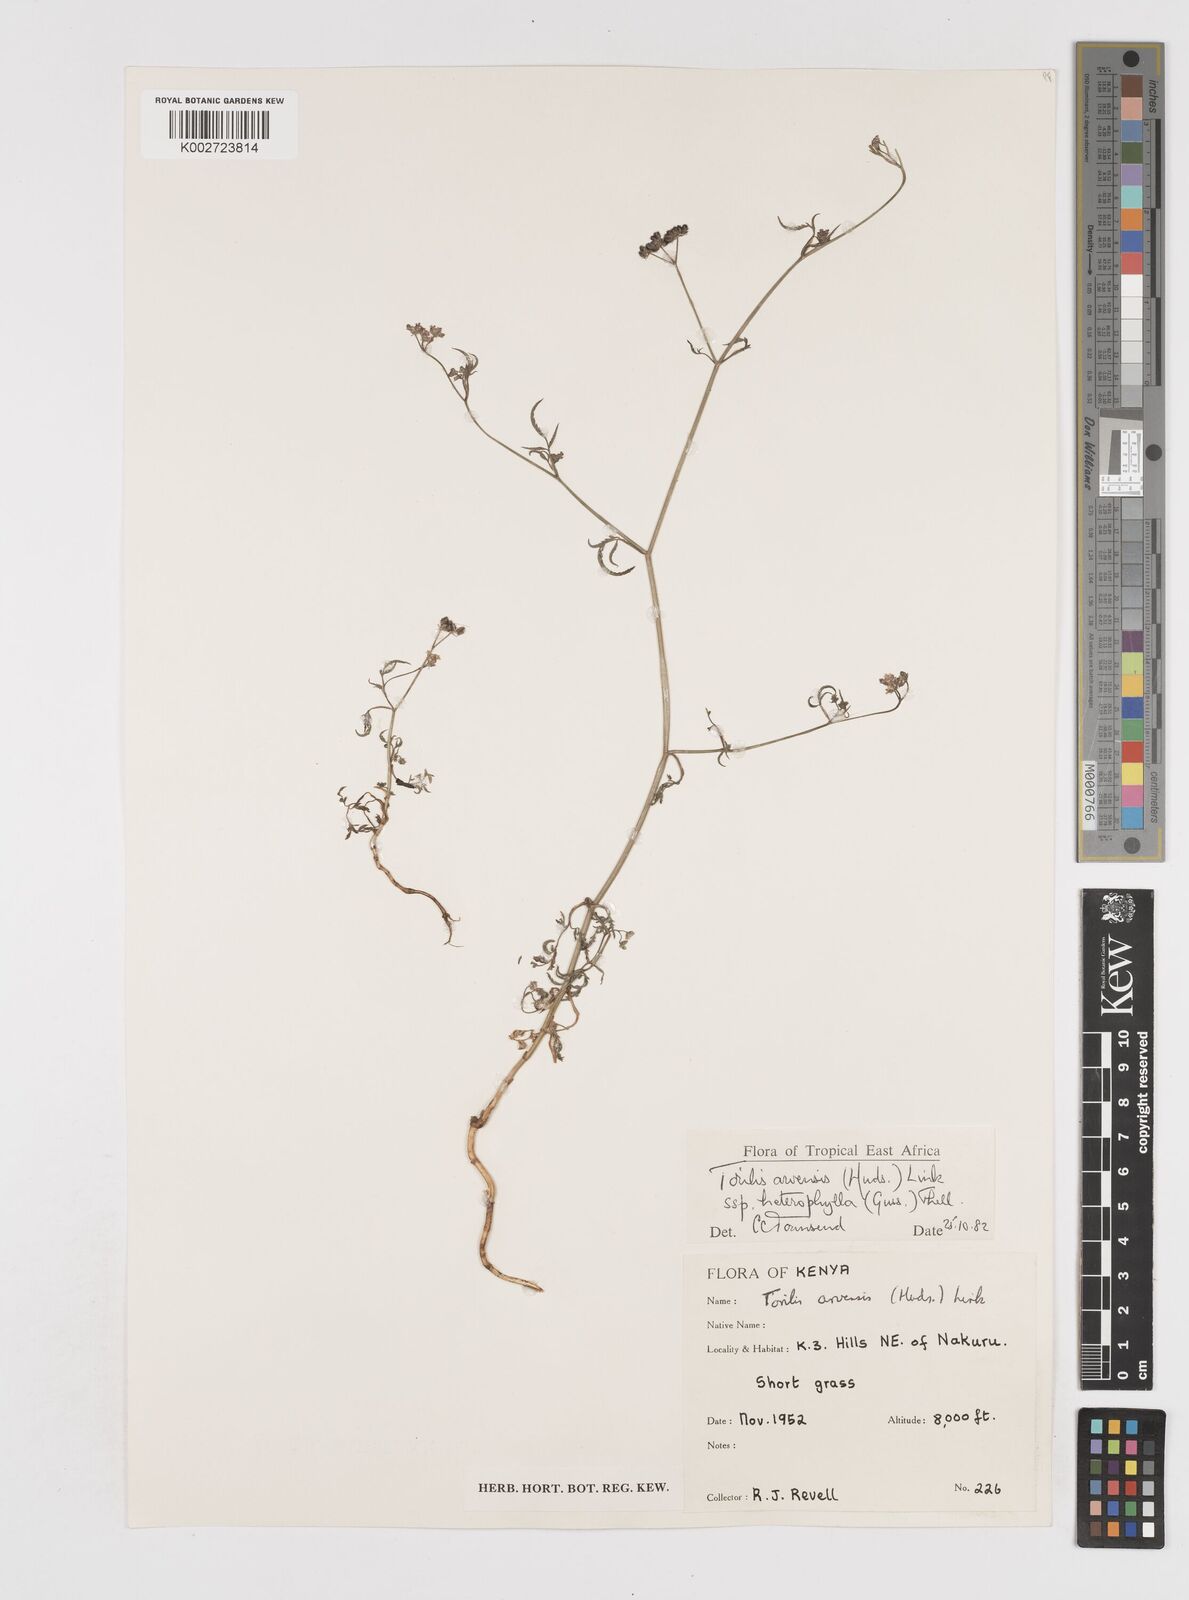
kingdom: Plantae
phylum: Tracheophyta
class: Magnoliopsida
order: Apiales
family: Apiaceae
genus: Torilis
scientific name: Torilis arvensis
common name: Spreading hedge-parsley
